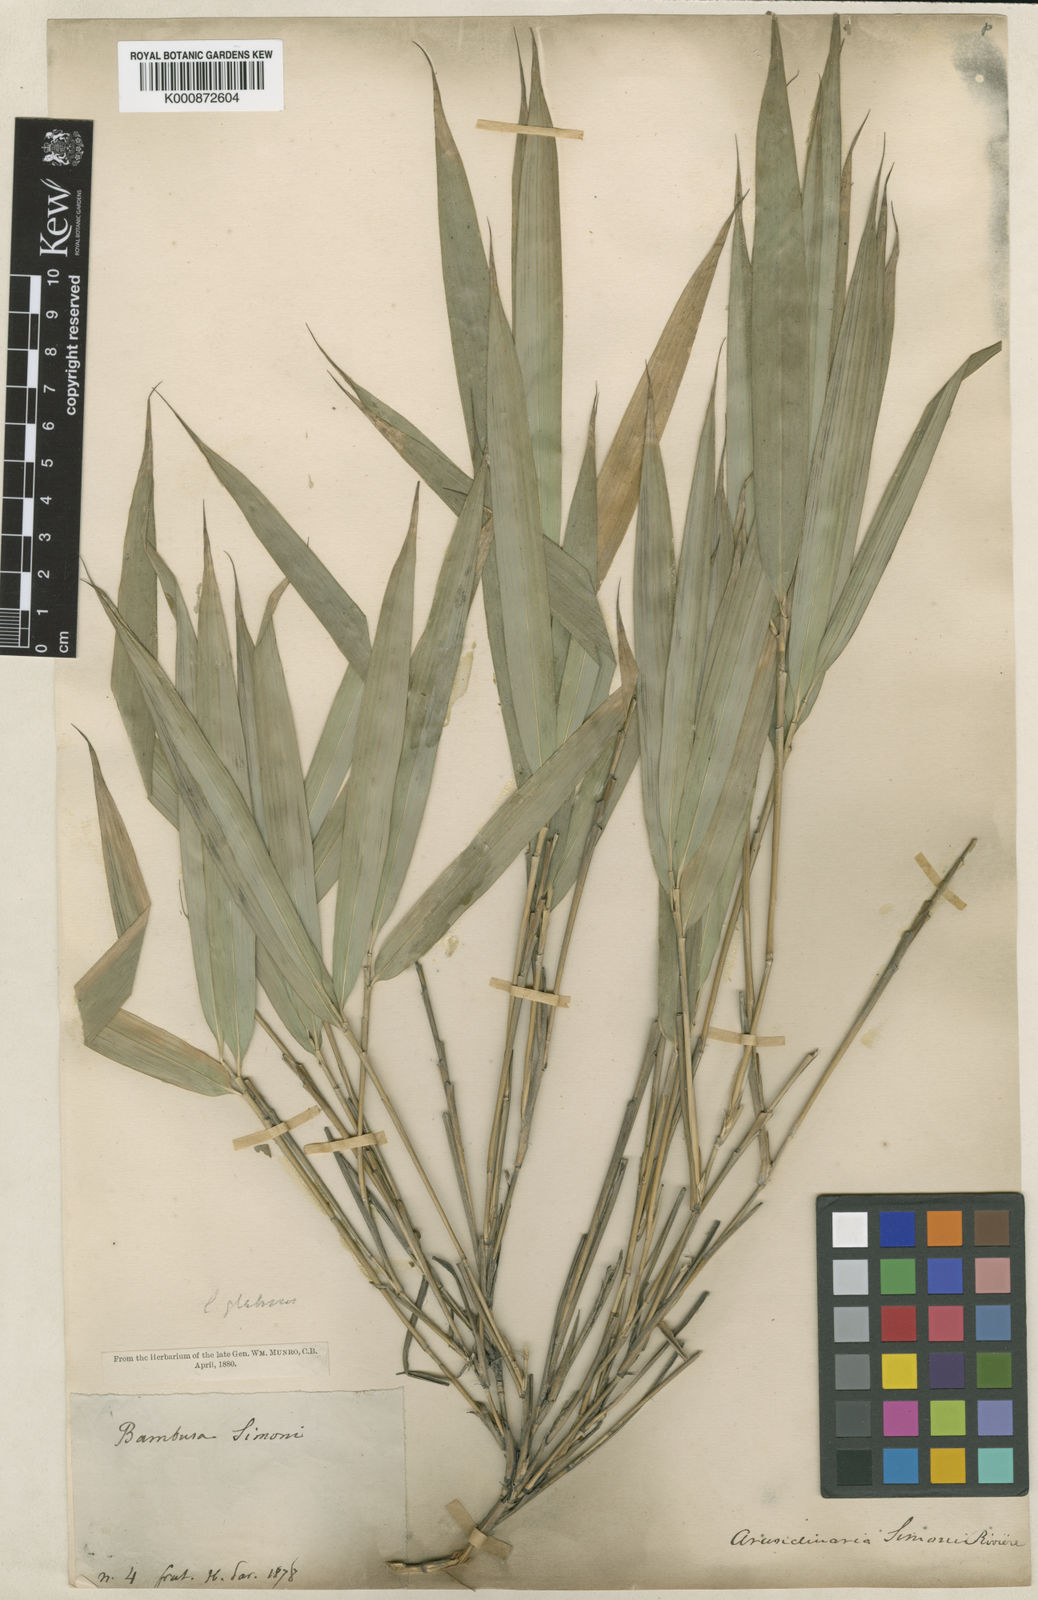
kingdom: Plantae
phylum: Tracheophyta
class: Liliopsida
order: Poales
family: Poaceae
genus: Arundinaria
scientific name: Arundinaria
